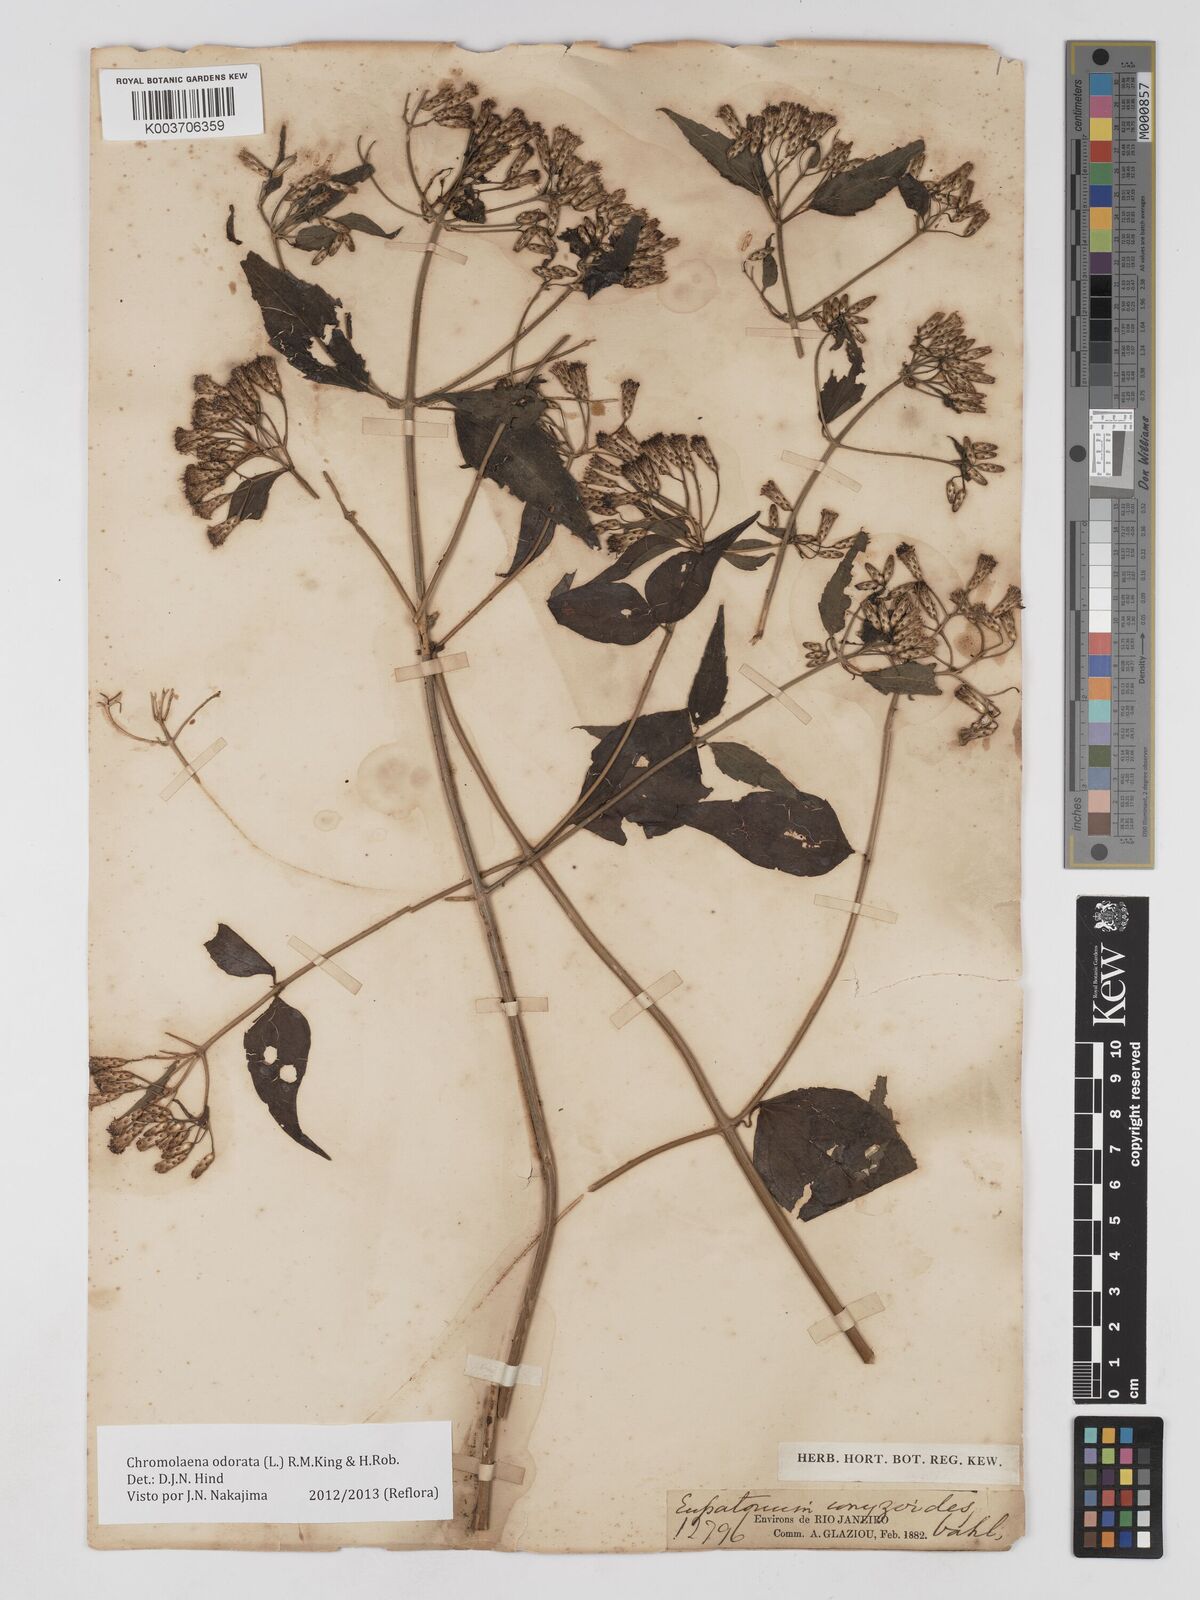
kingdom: Plantae
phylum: Tracheophyta
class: Magnoliopsida
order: Asterales
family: Asteraceae
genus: Chromolaena
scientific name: Chromolaena odorata
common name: Siamweed
